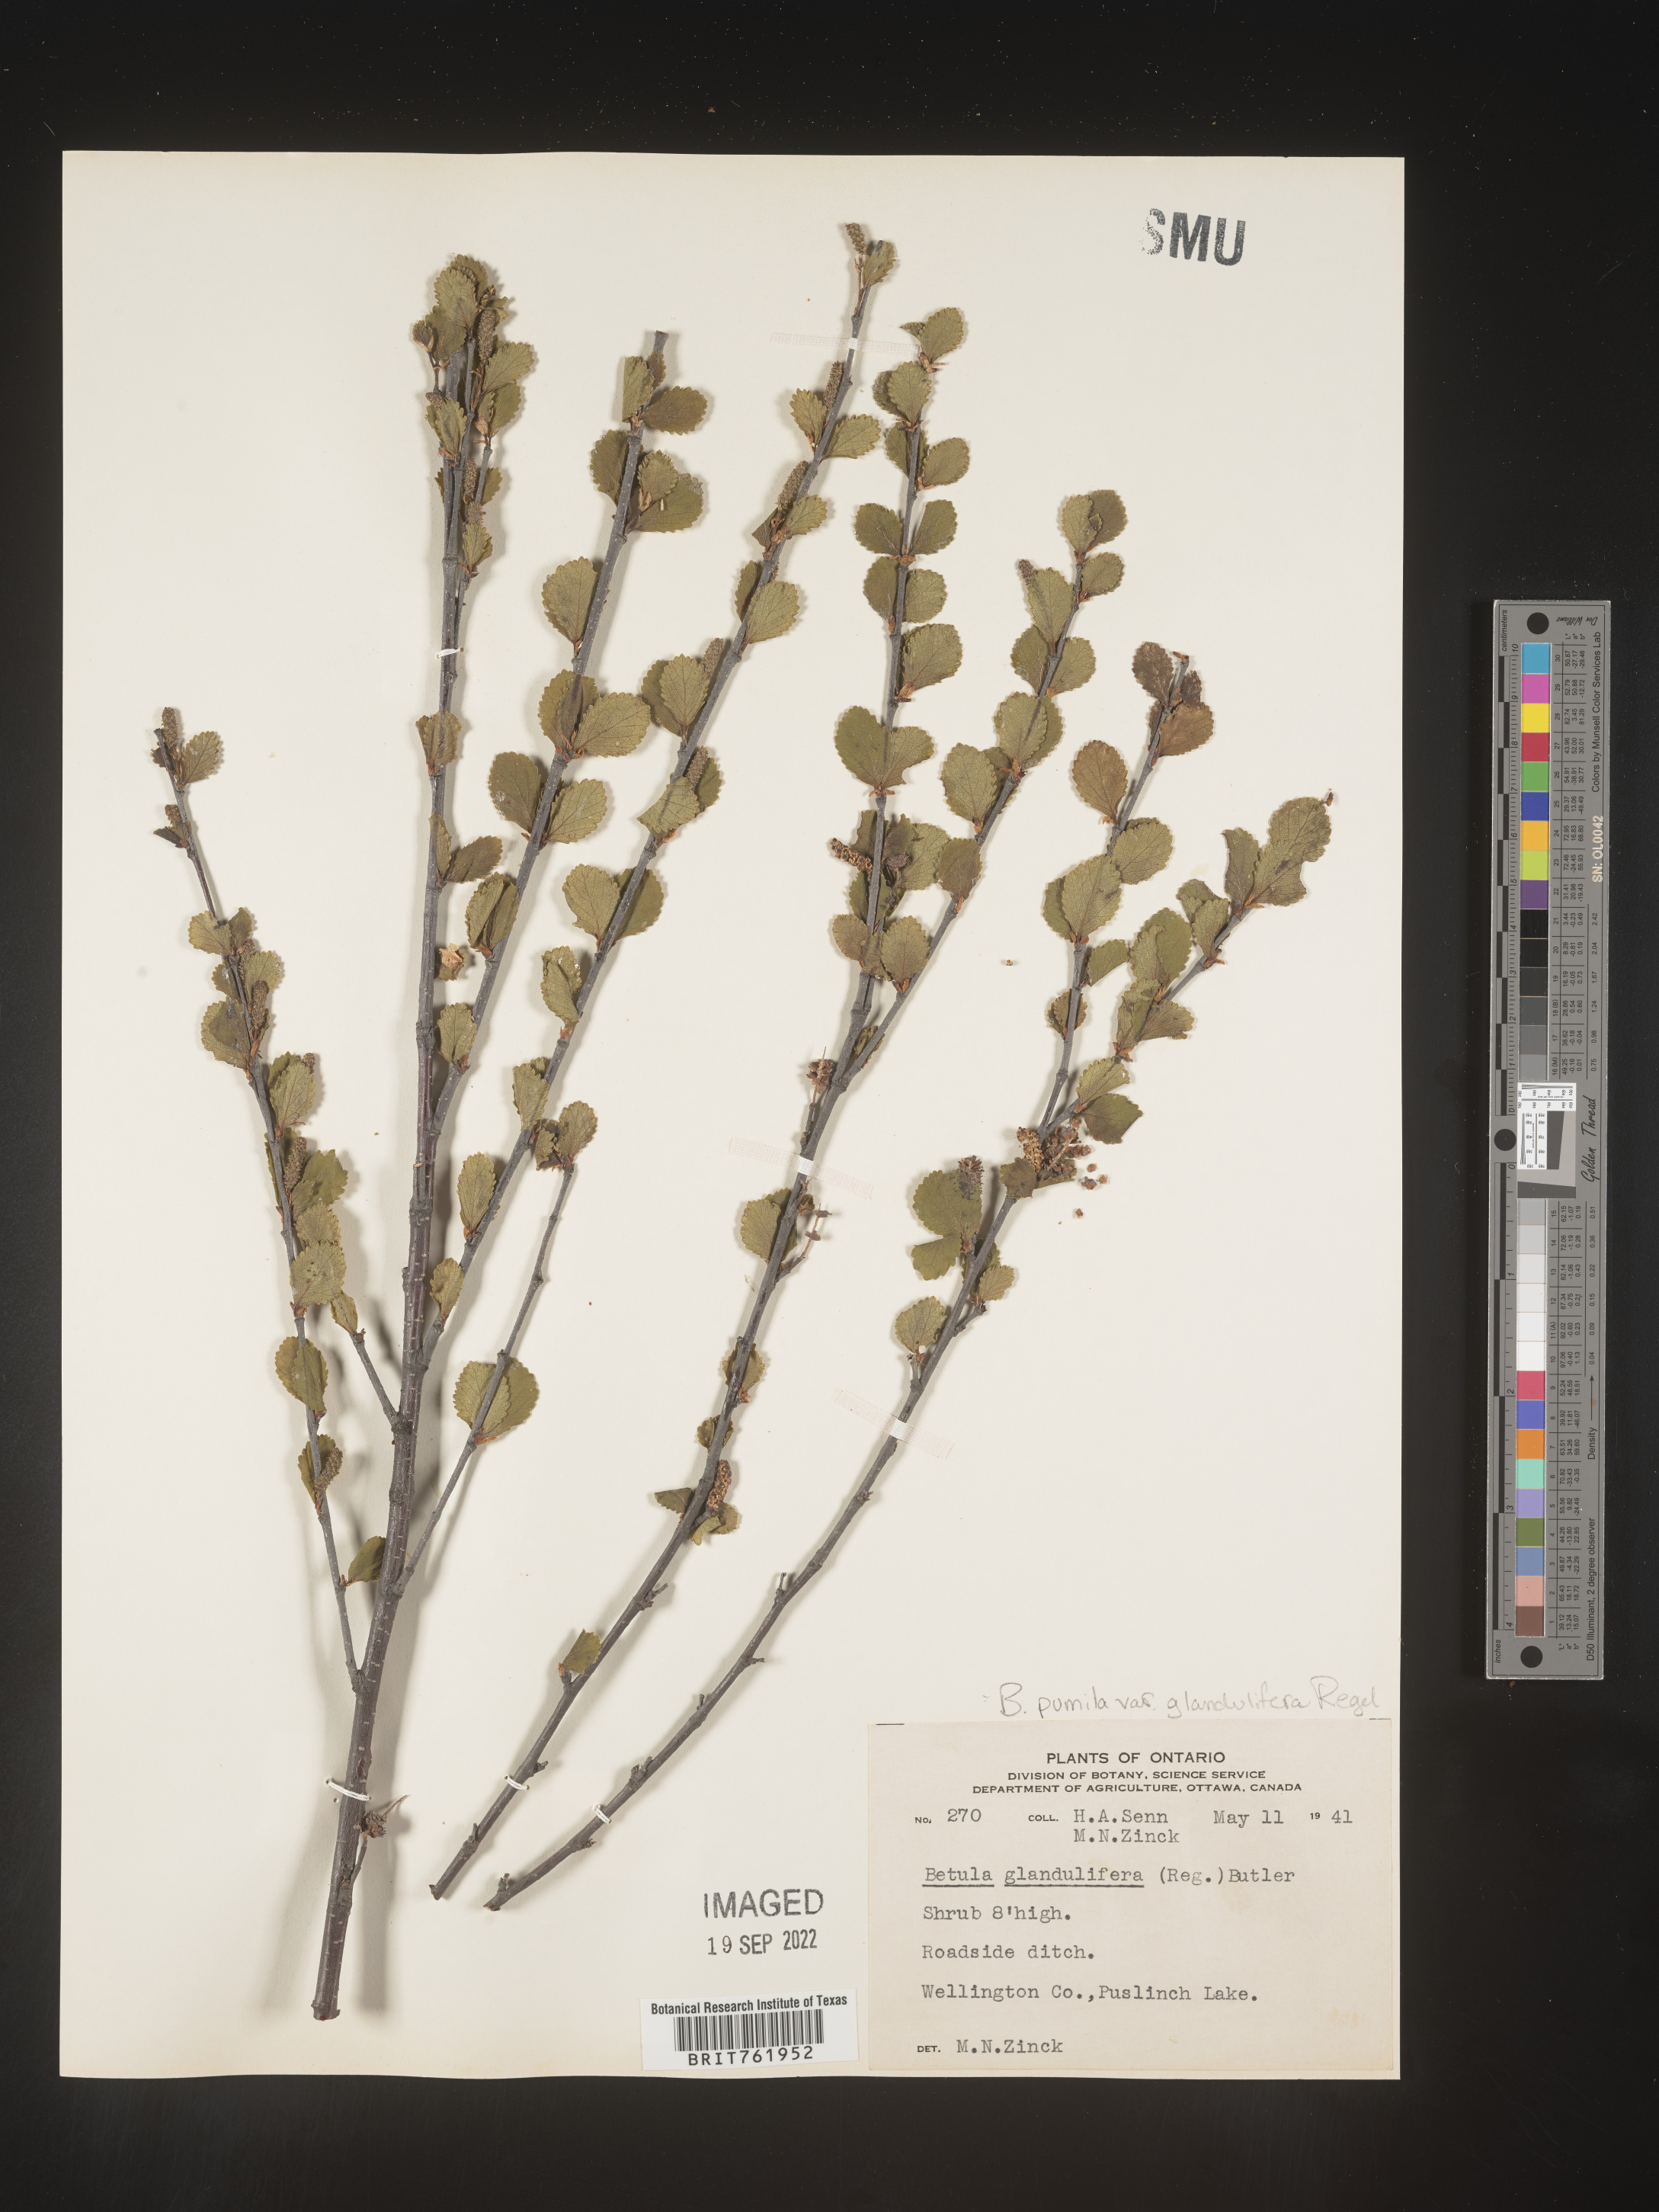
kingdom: Plantae
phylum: Tracheophyta
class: Magnoliopsida
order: Fagales
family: Betulaceae
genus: Betula
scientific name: Betula pumila
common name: Bog birch
